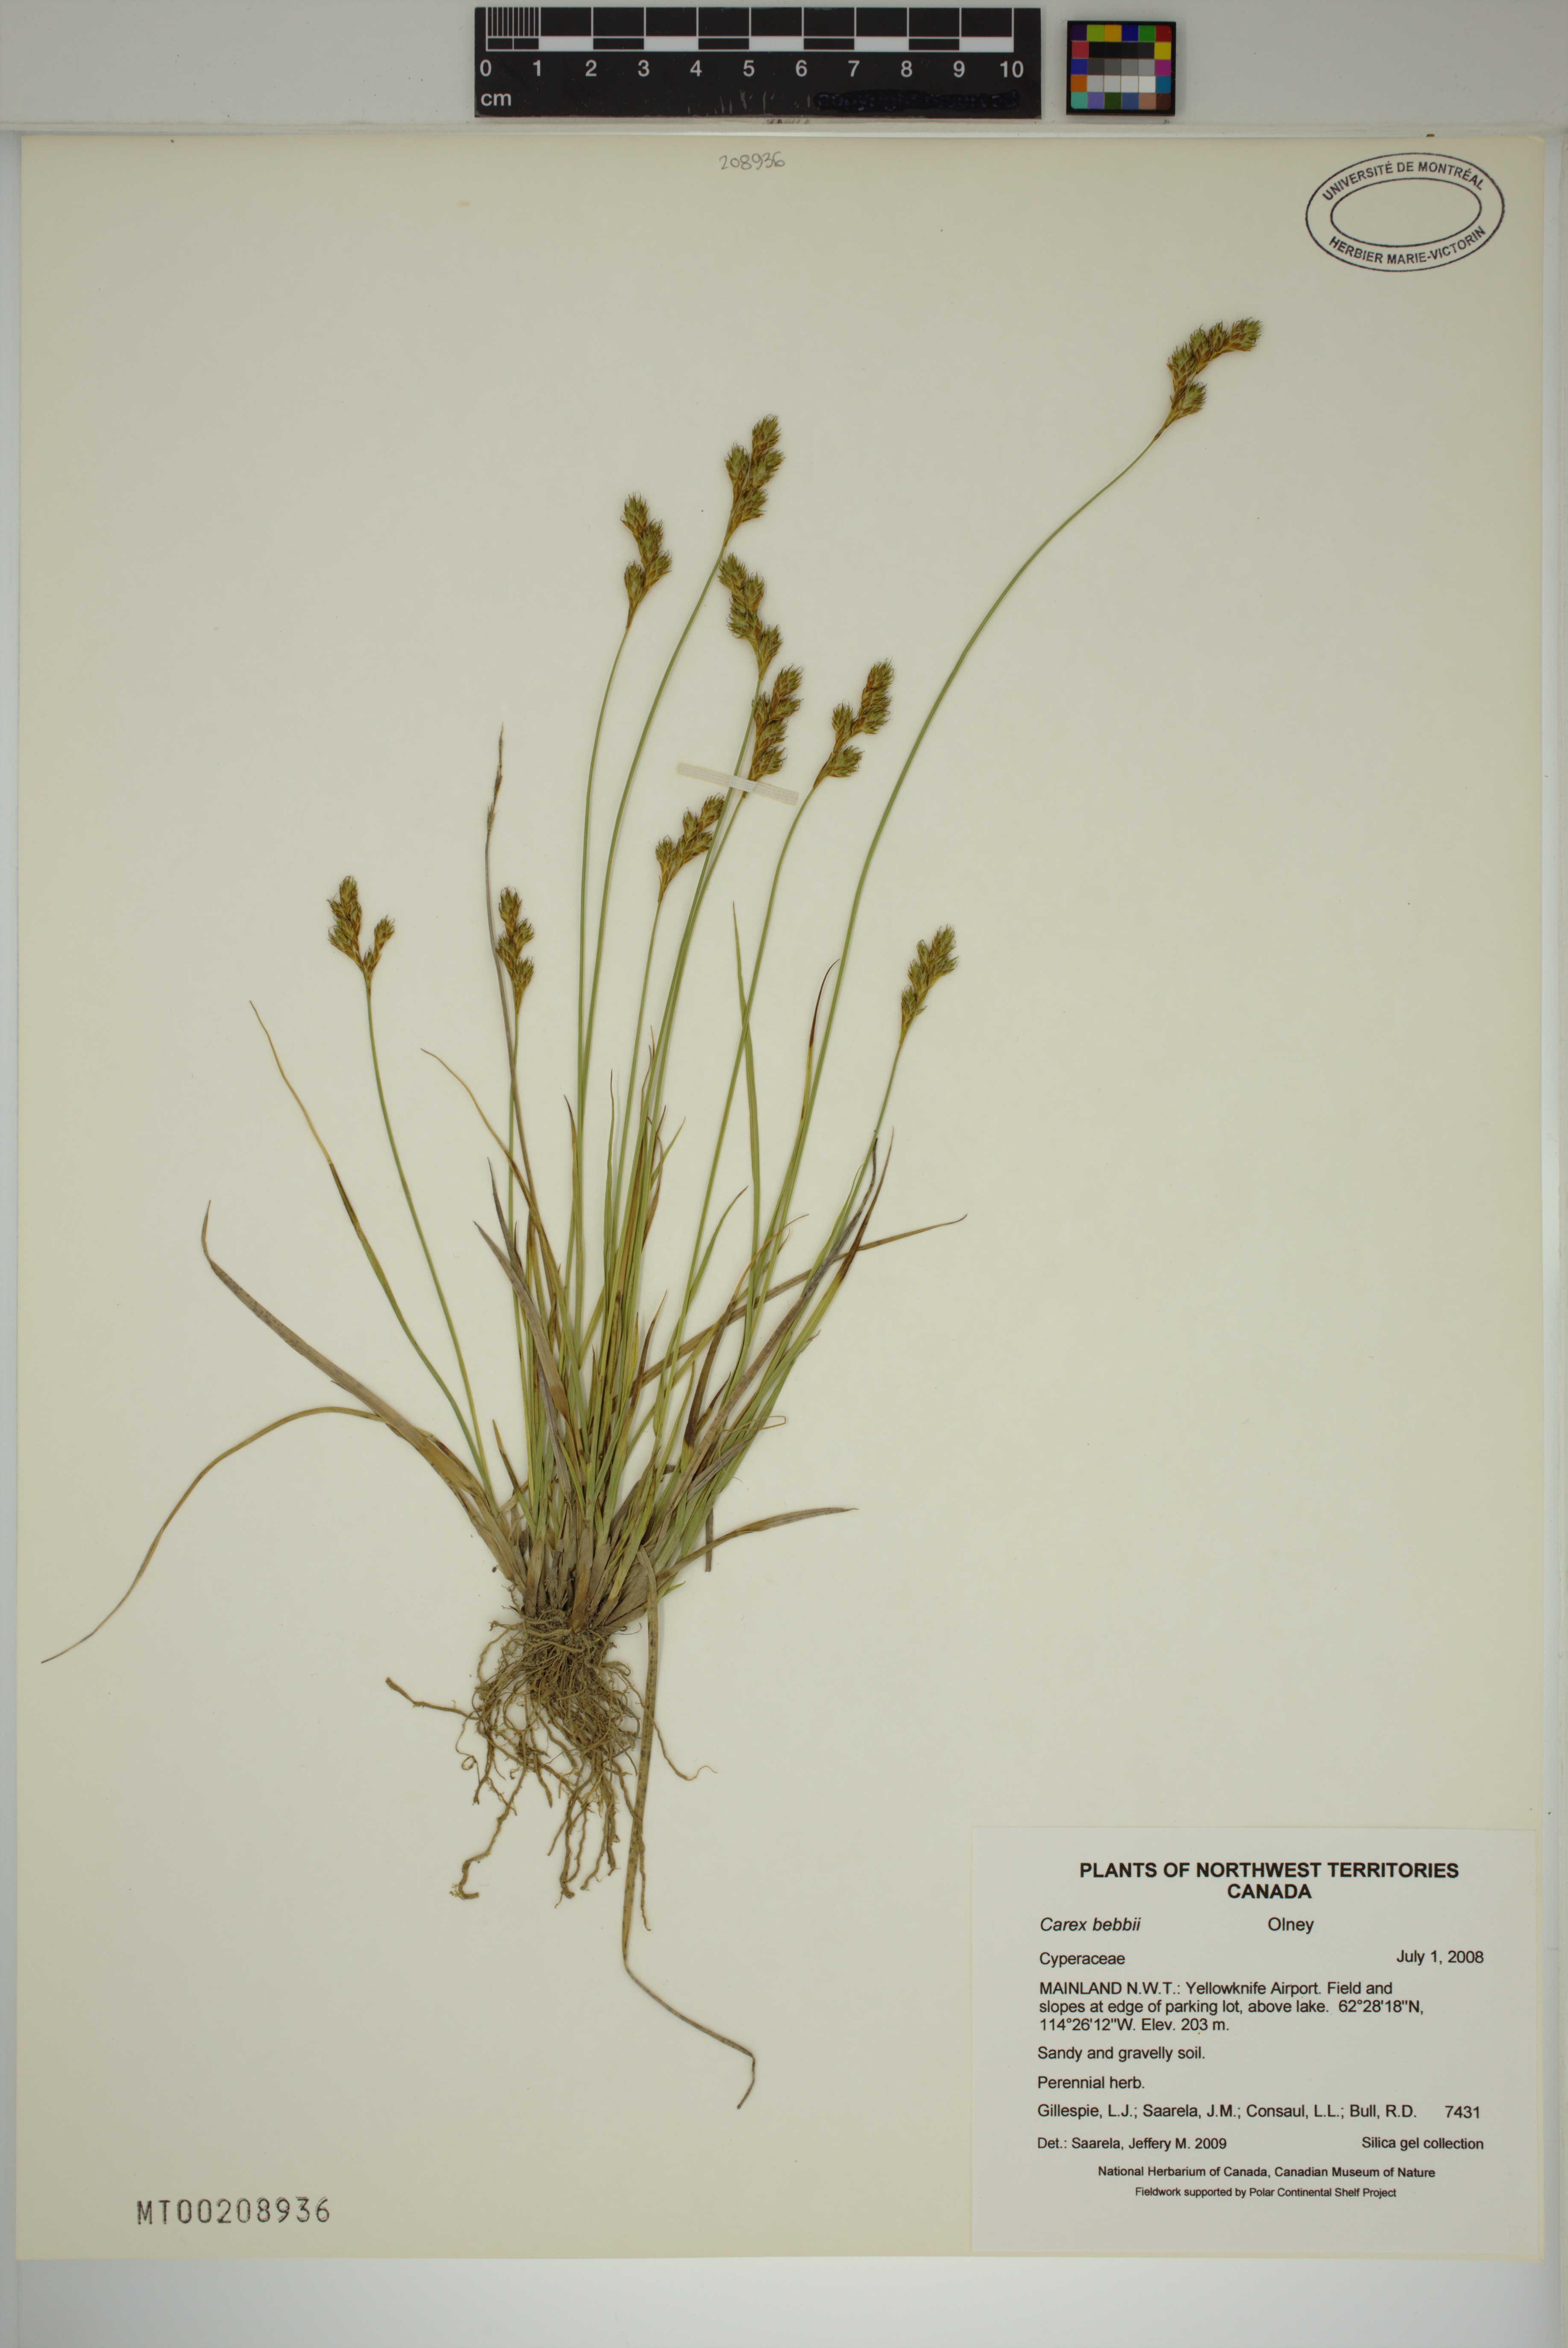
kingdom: Plantae
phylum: Tracheophyta
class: Liliopsida
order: Poales
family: Cyperaceae
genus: Carex
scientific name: Carex bebbii
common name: Bebb's sedge
